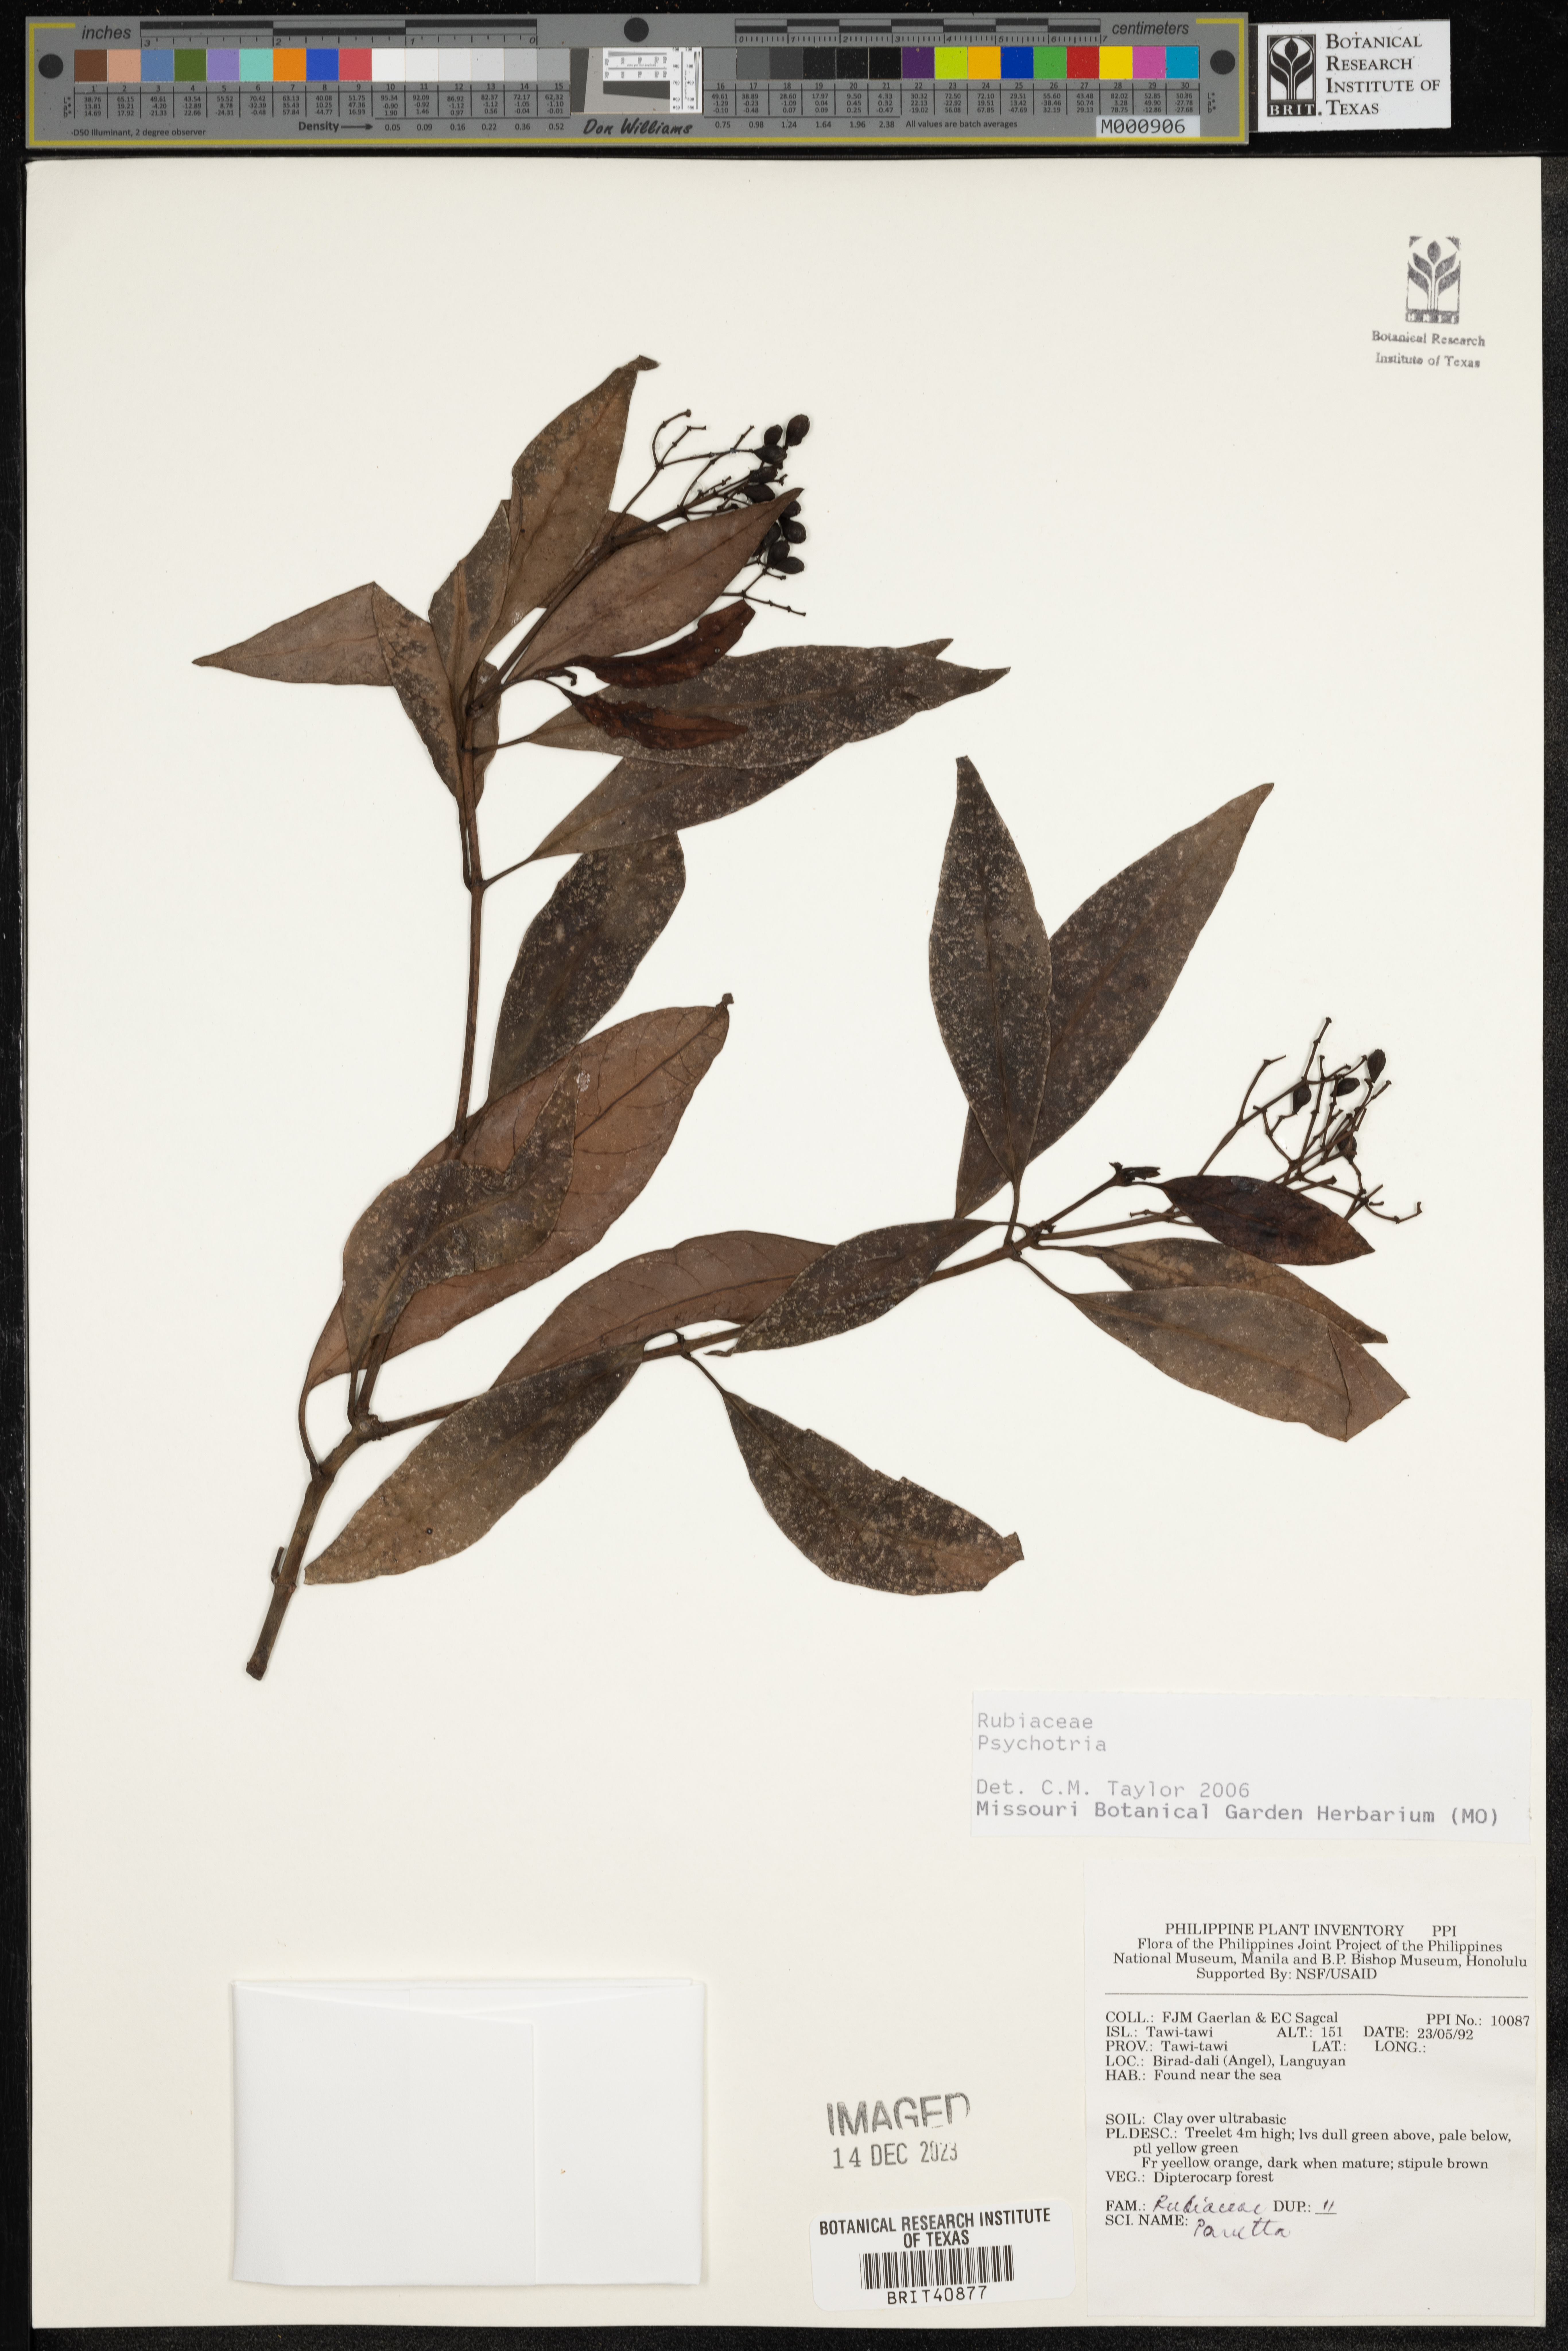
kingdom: Plantae
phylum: Tracheophyta
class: Magnoliopsida
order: Gentianales
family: Rubiaceae
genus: Psychotria
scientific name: Psychotria
